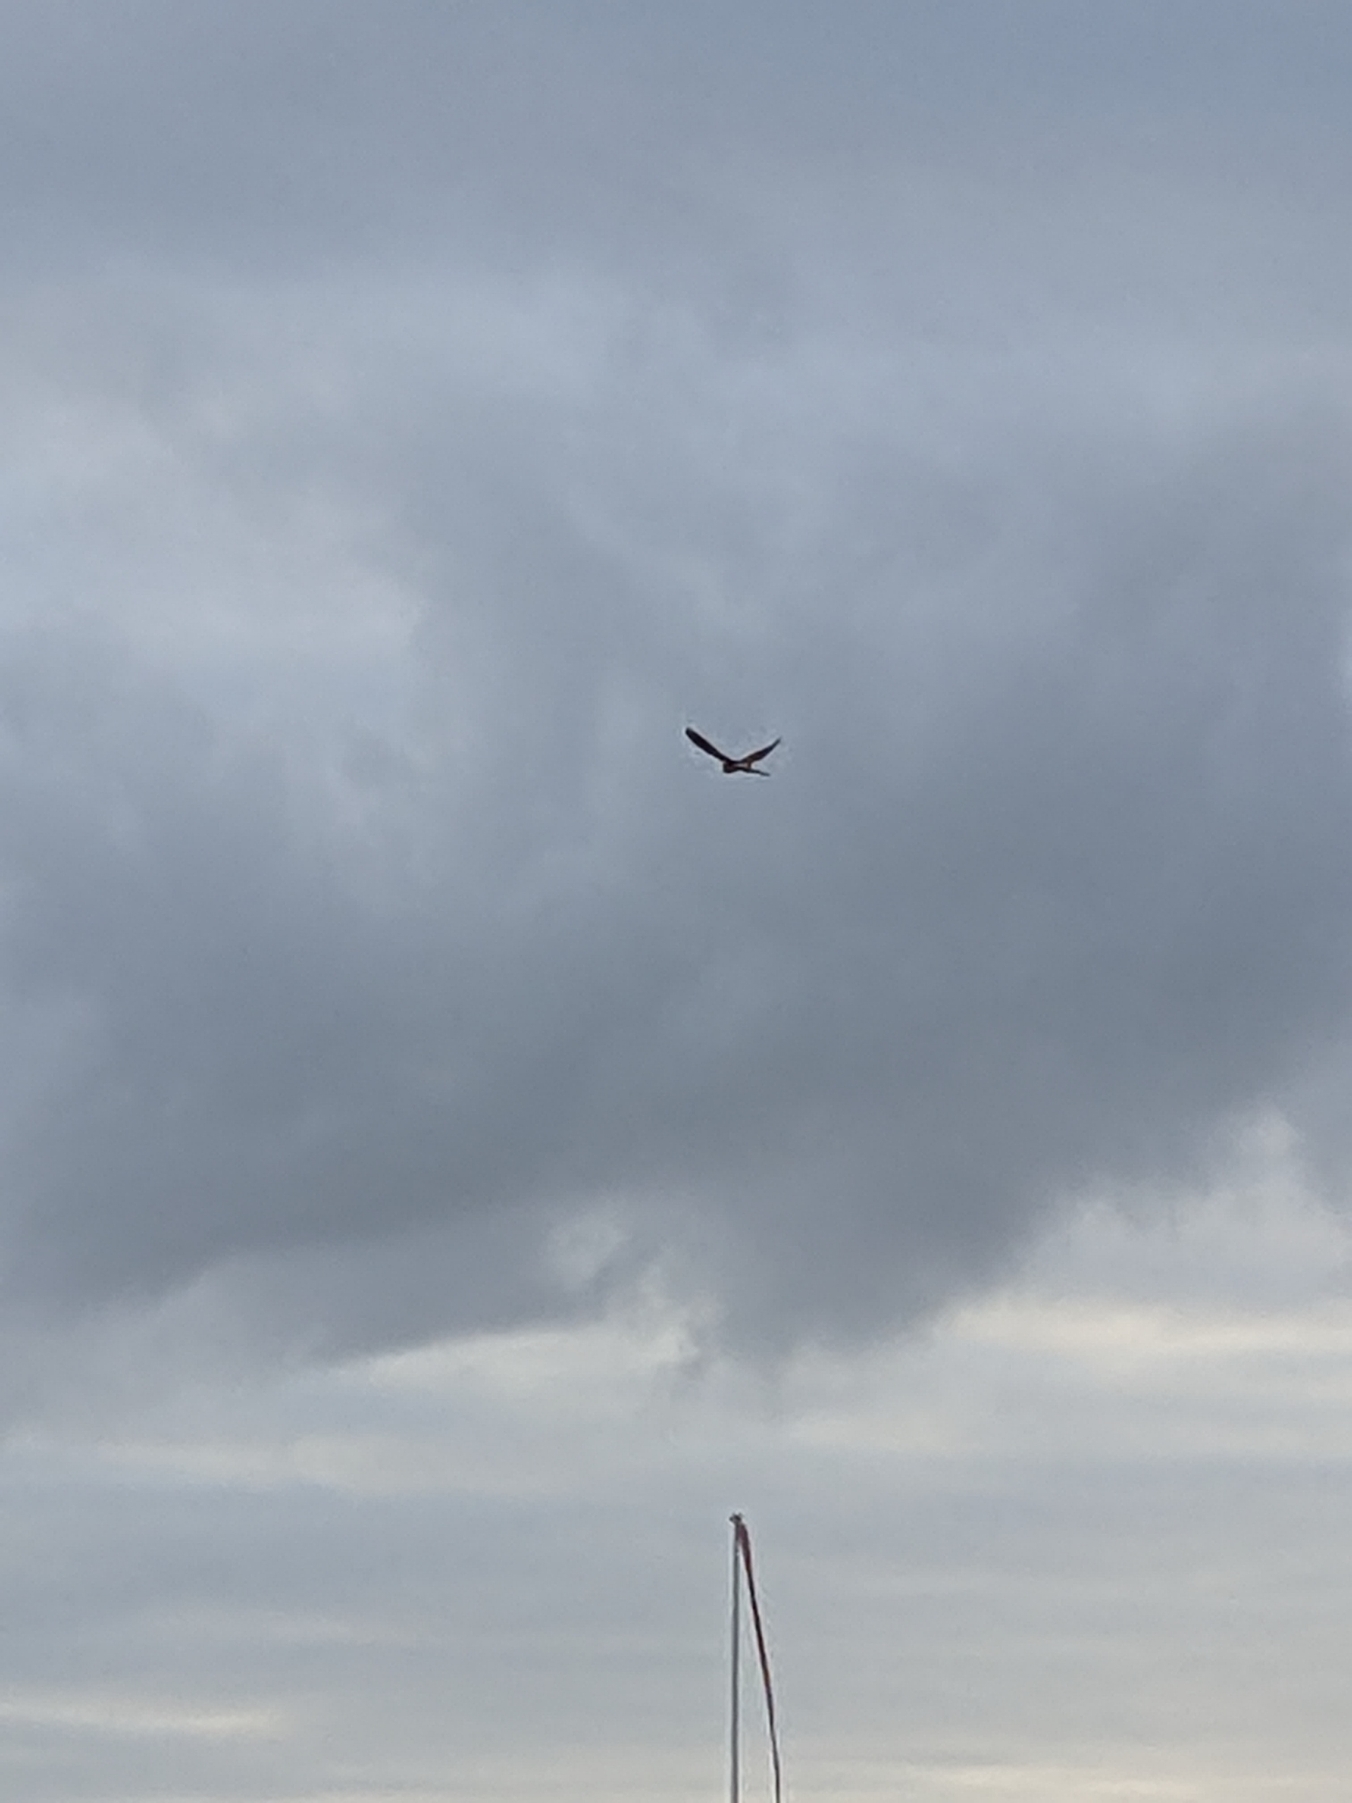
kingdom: Animalia
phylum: Chordata
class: Aves
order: Falconiformes
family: Falconidae
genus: Falco
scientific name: Falco tinnunculus
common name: Tårnfalk
